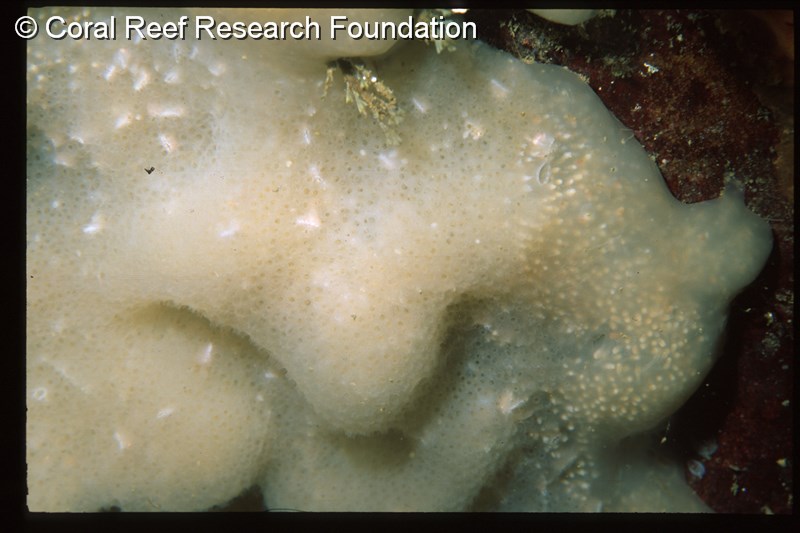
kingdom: Animalia
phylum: Chordata
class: Ascidiacea
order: Aplousobranchia
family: Pseudodistomidae
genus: Pseudodistoma
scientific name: Pseudodistoma
